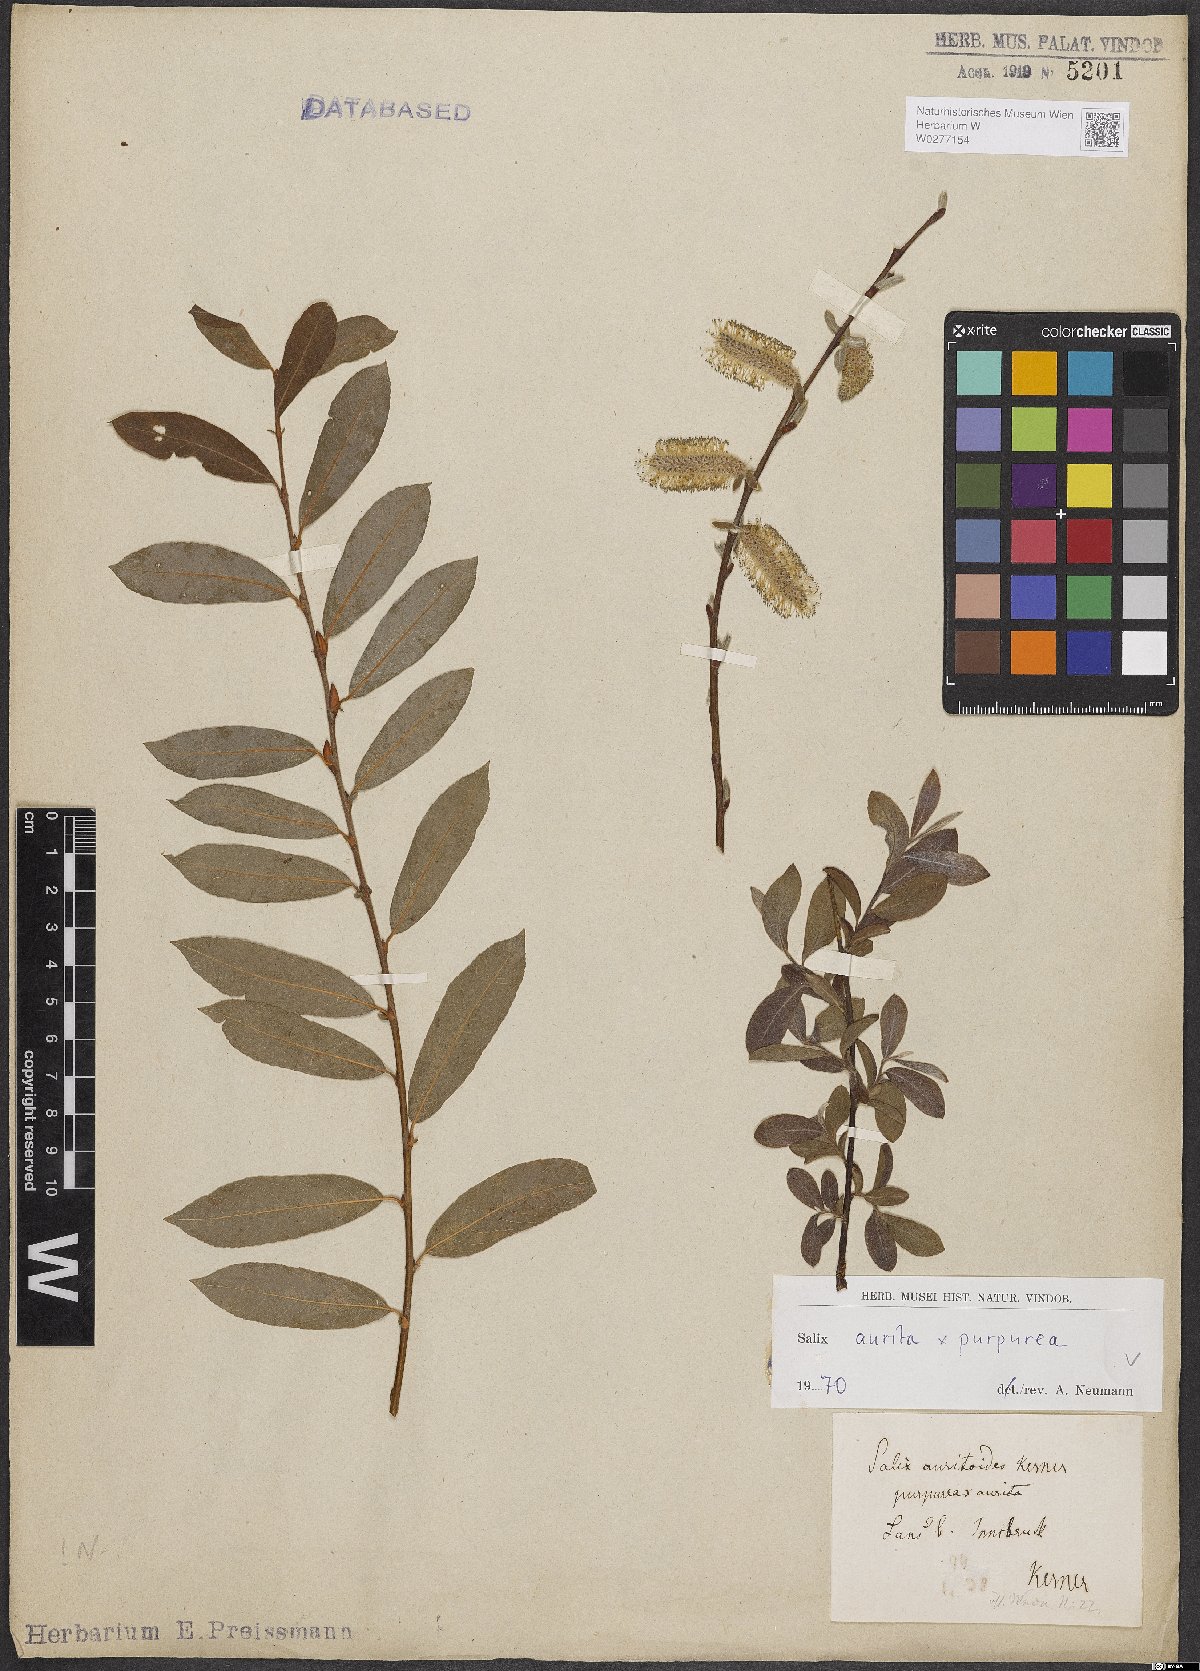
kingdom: Plantae
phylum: Tracheophyta
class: Magnoliopsida
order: Malpighiales
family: Salicaceae
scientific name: Salicaceae
